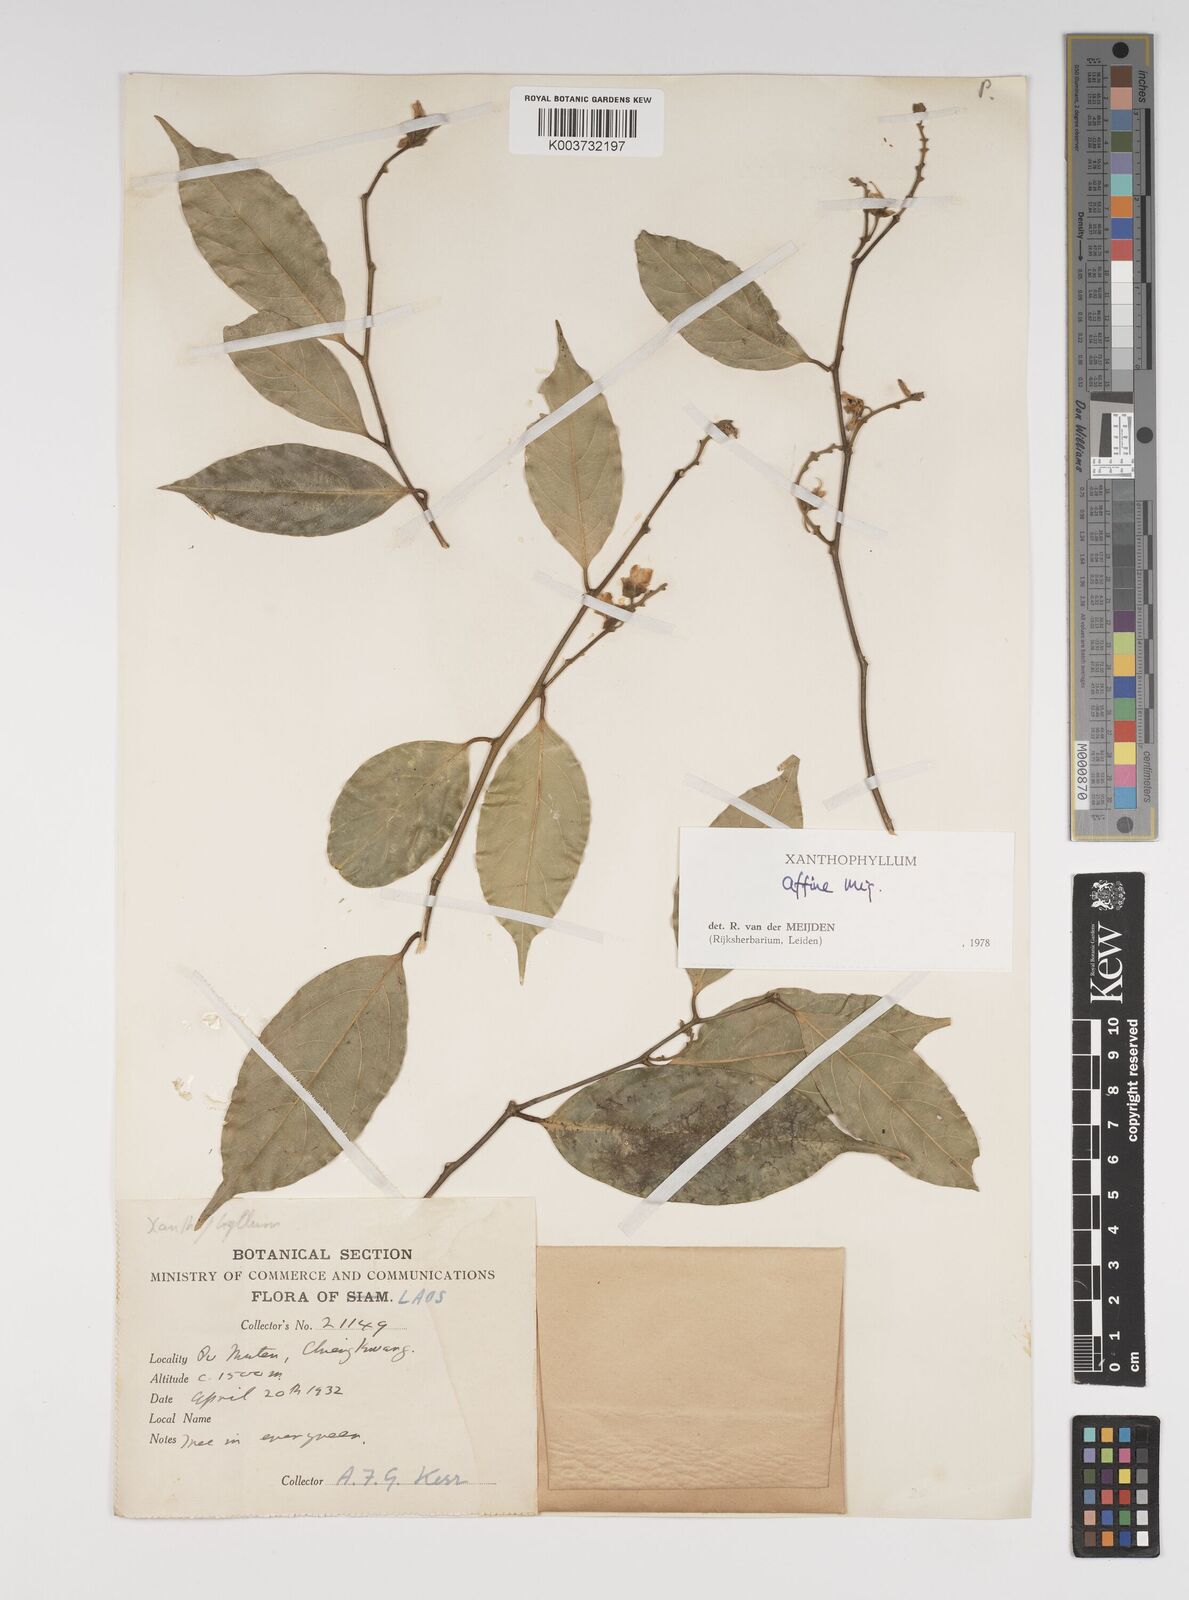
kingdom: Plantae
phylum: Tracheophyta
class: Magnoliopsida
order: Fabales
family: Polygalaceae
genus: Xanthophyllum
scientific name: Xanthophyllum flavescens
